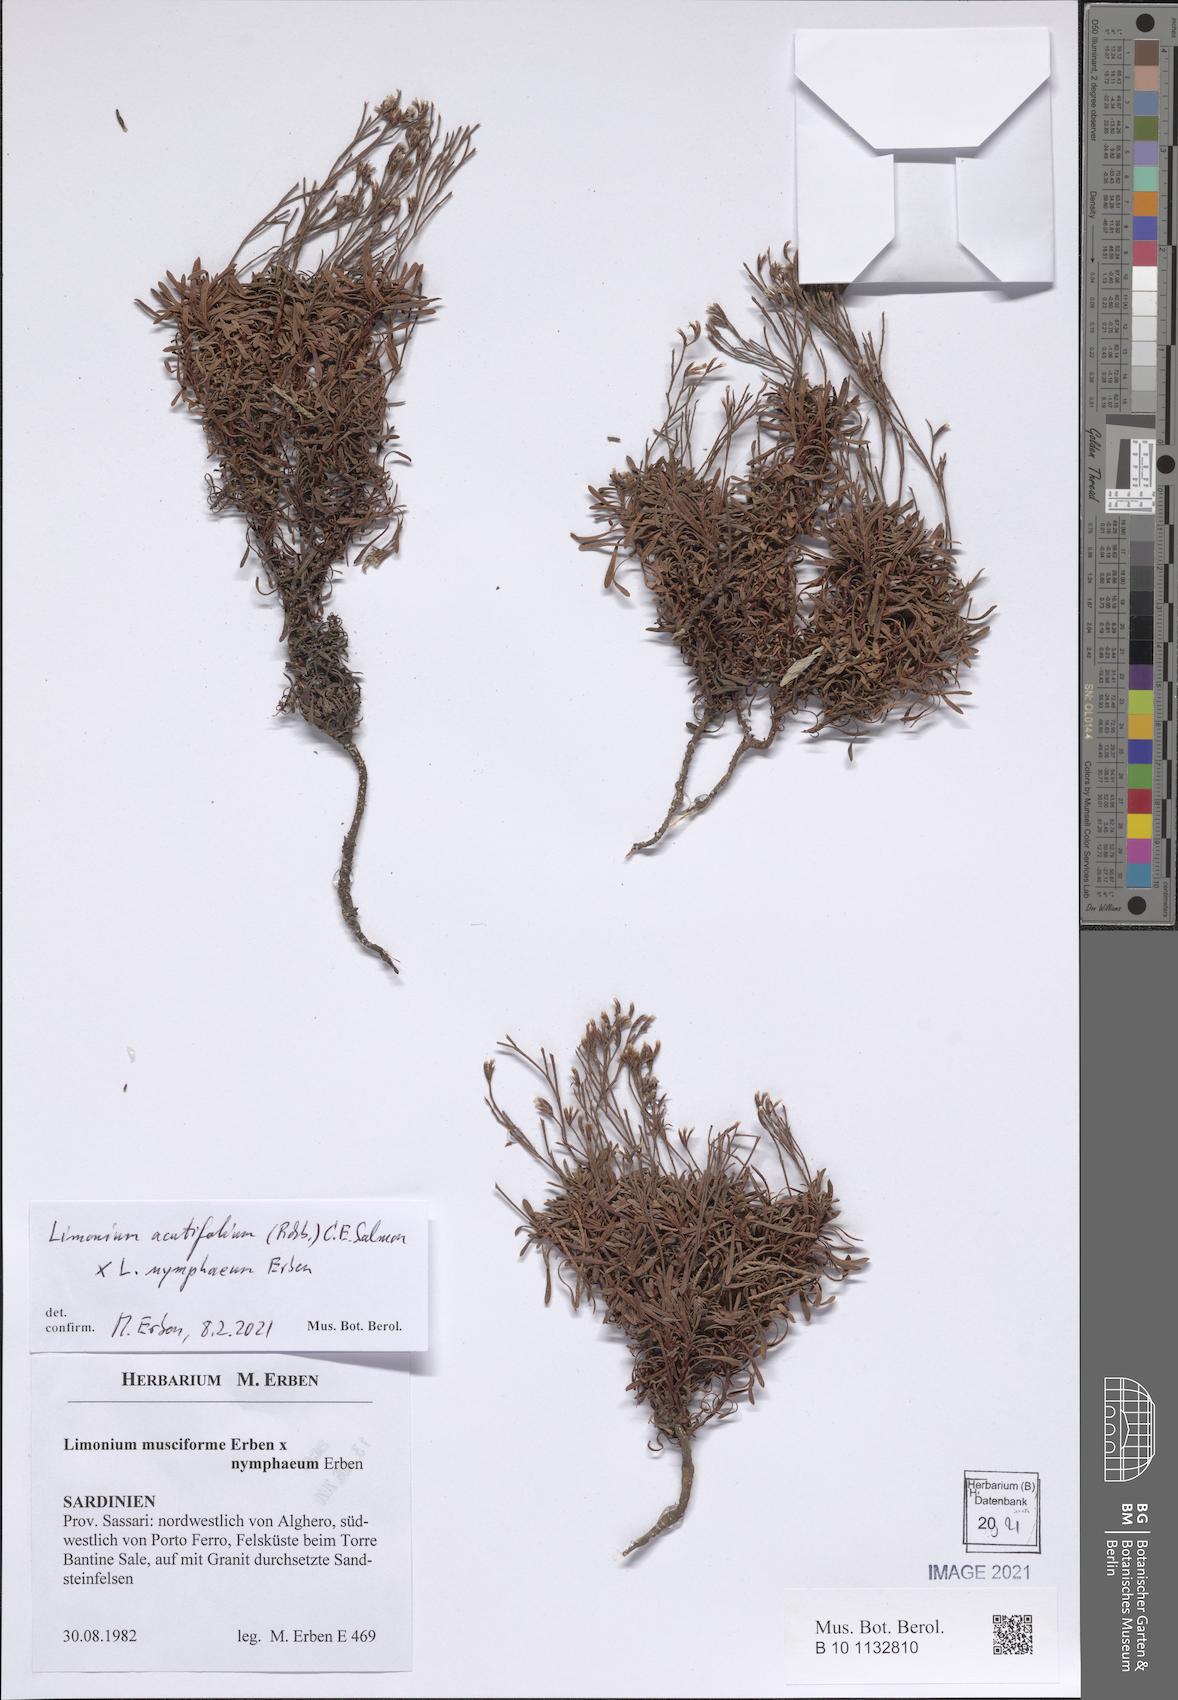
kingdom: Plantae
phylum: Tracheophyta
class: Magnoliopsida
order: Caryophyllales
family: Plumbaginaceae
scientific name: Plumbaginaceae
